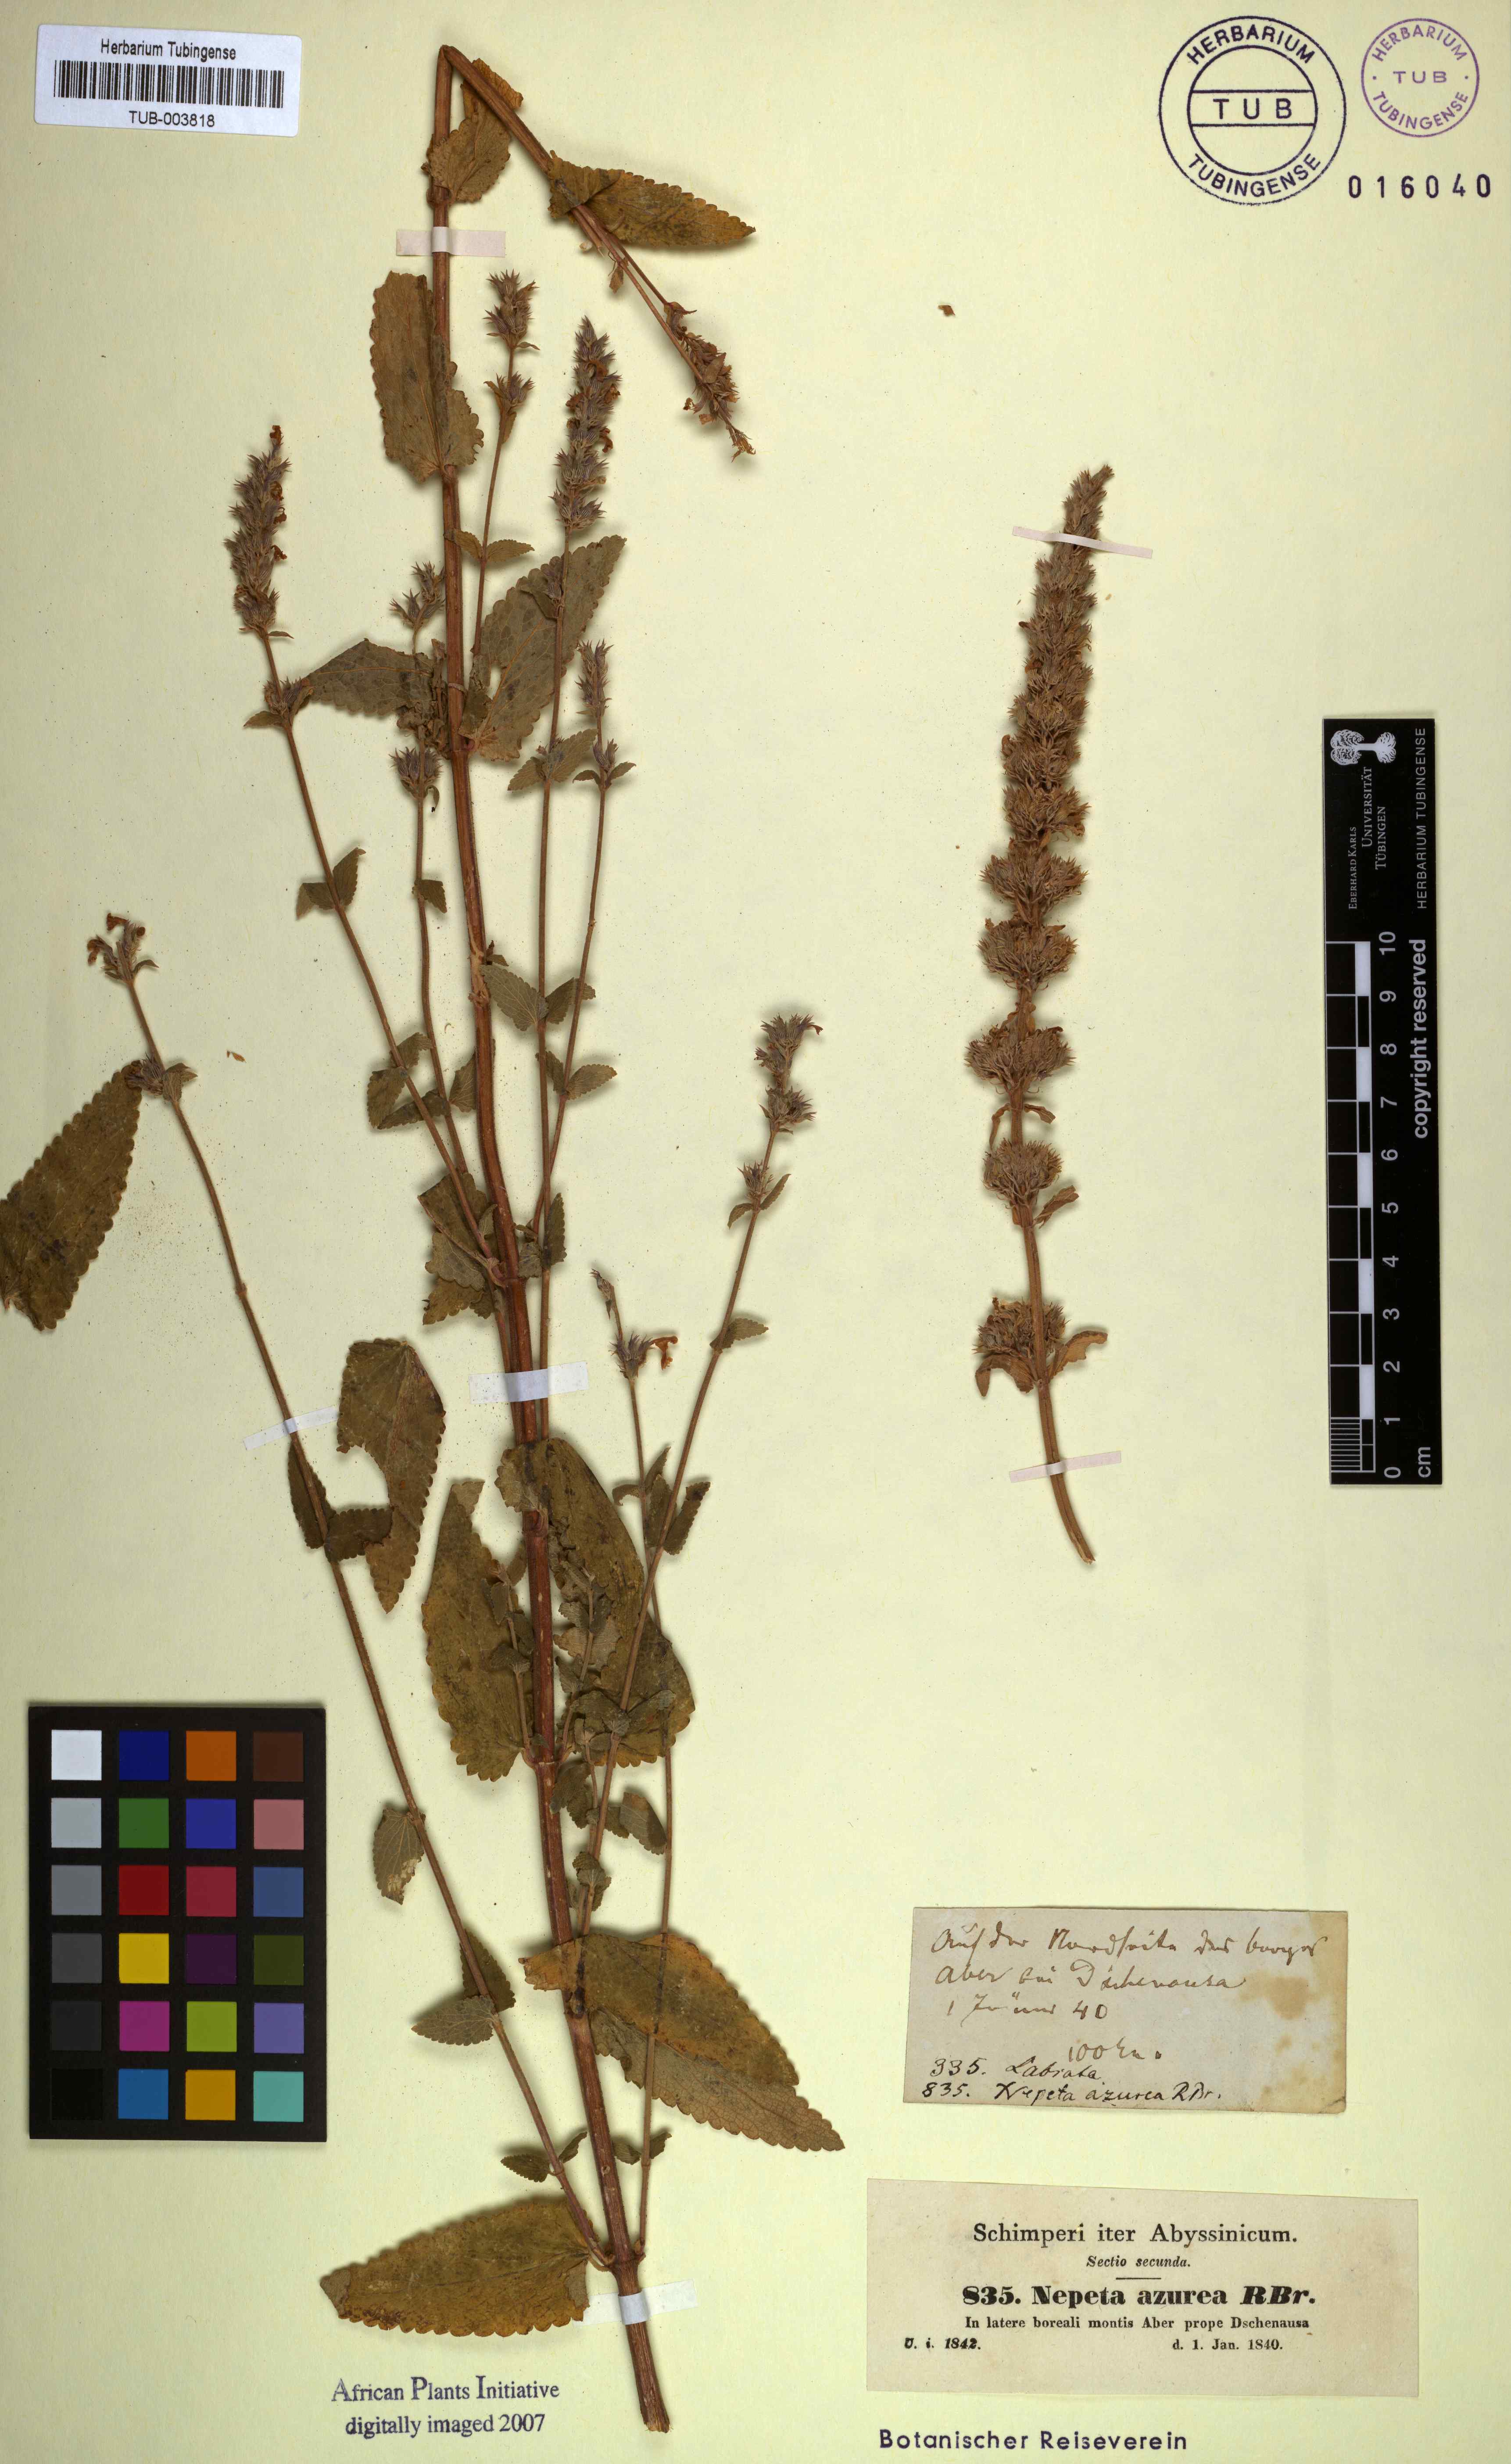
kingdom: Plantae
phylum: Tracheophyta
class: Magnoliopsida
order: Lamiales
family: Lamiaceae
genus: Nepeta
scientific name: Nepeta azurea
